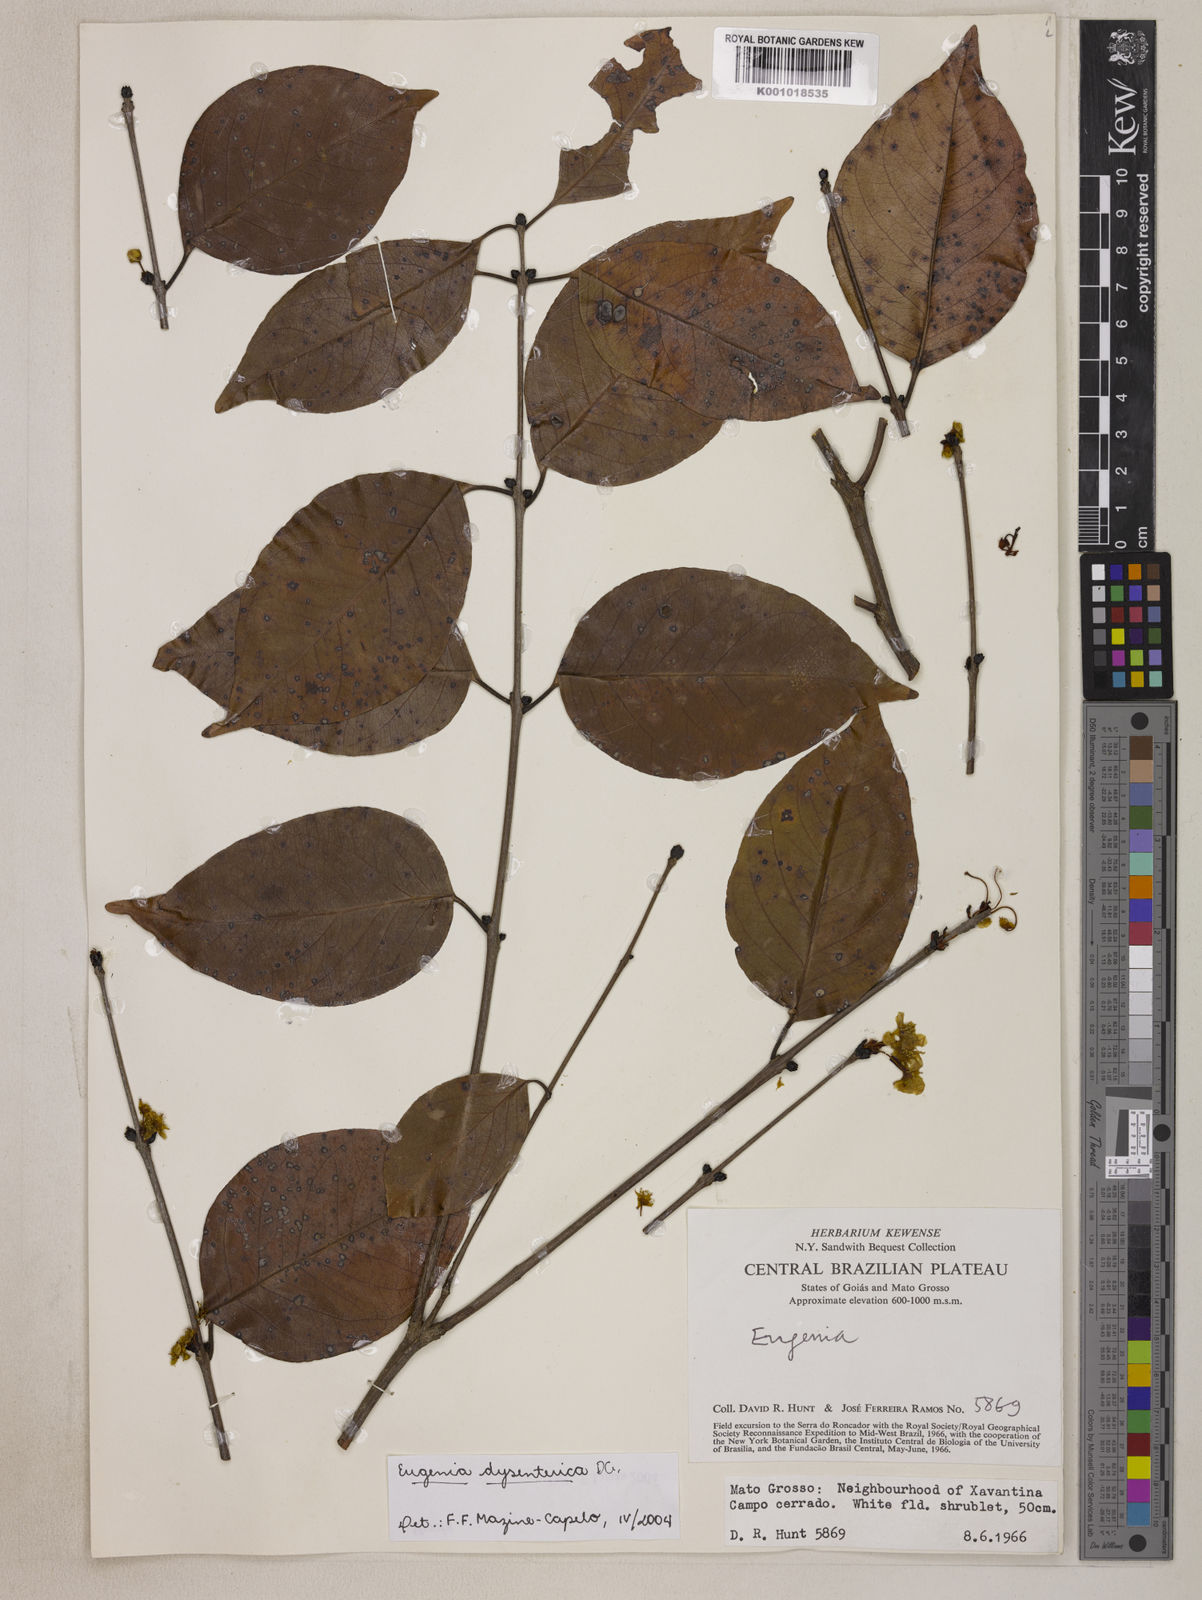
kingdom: Plantae
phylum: Tracheophyta
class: Magnoliopsida
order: Myrtales
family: Myrtaceae
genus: Eugenia
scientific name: Eugenia dysenterica
